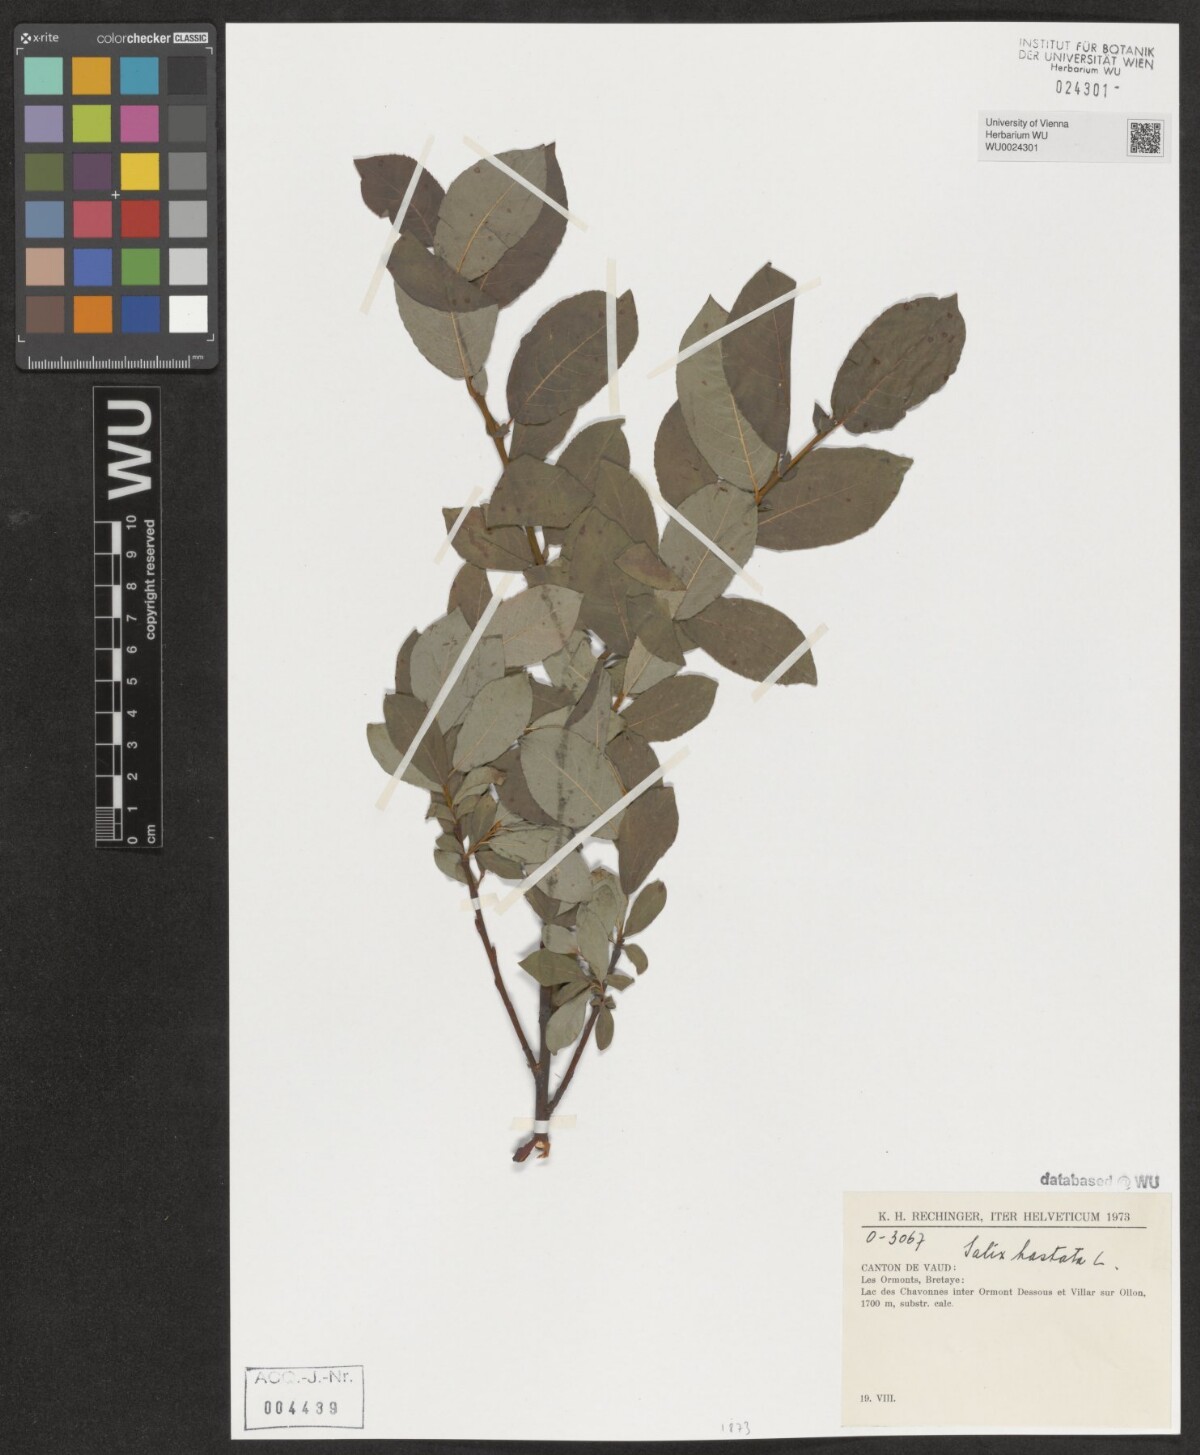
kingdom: Plantae
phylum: Tracheophyta
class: Magnoliopsida
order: Malpighiales
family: Salicaceae
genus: Salix
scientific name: Salix hastata
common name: Halberd willow
